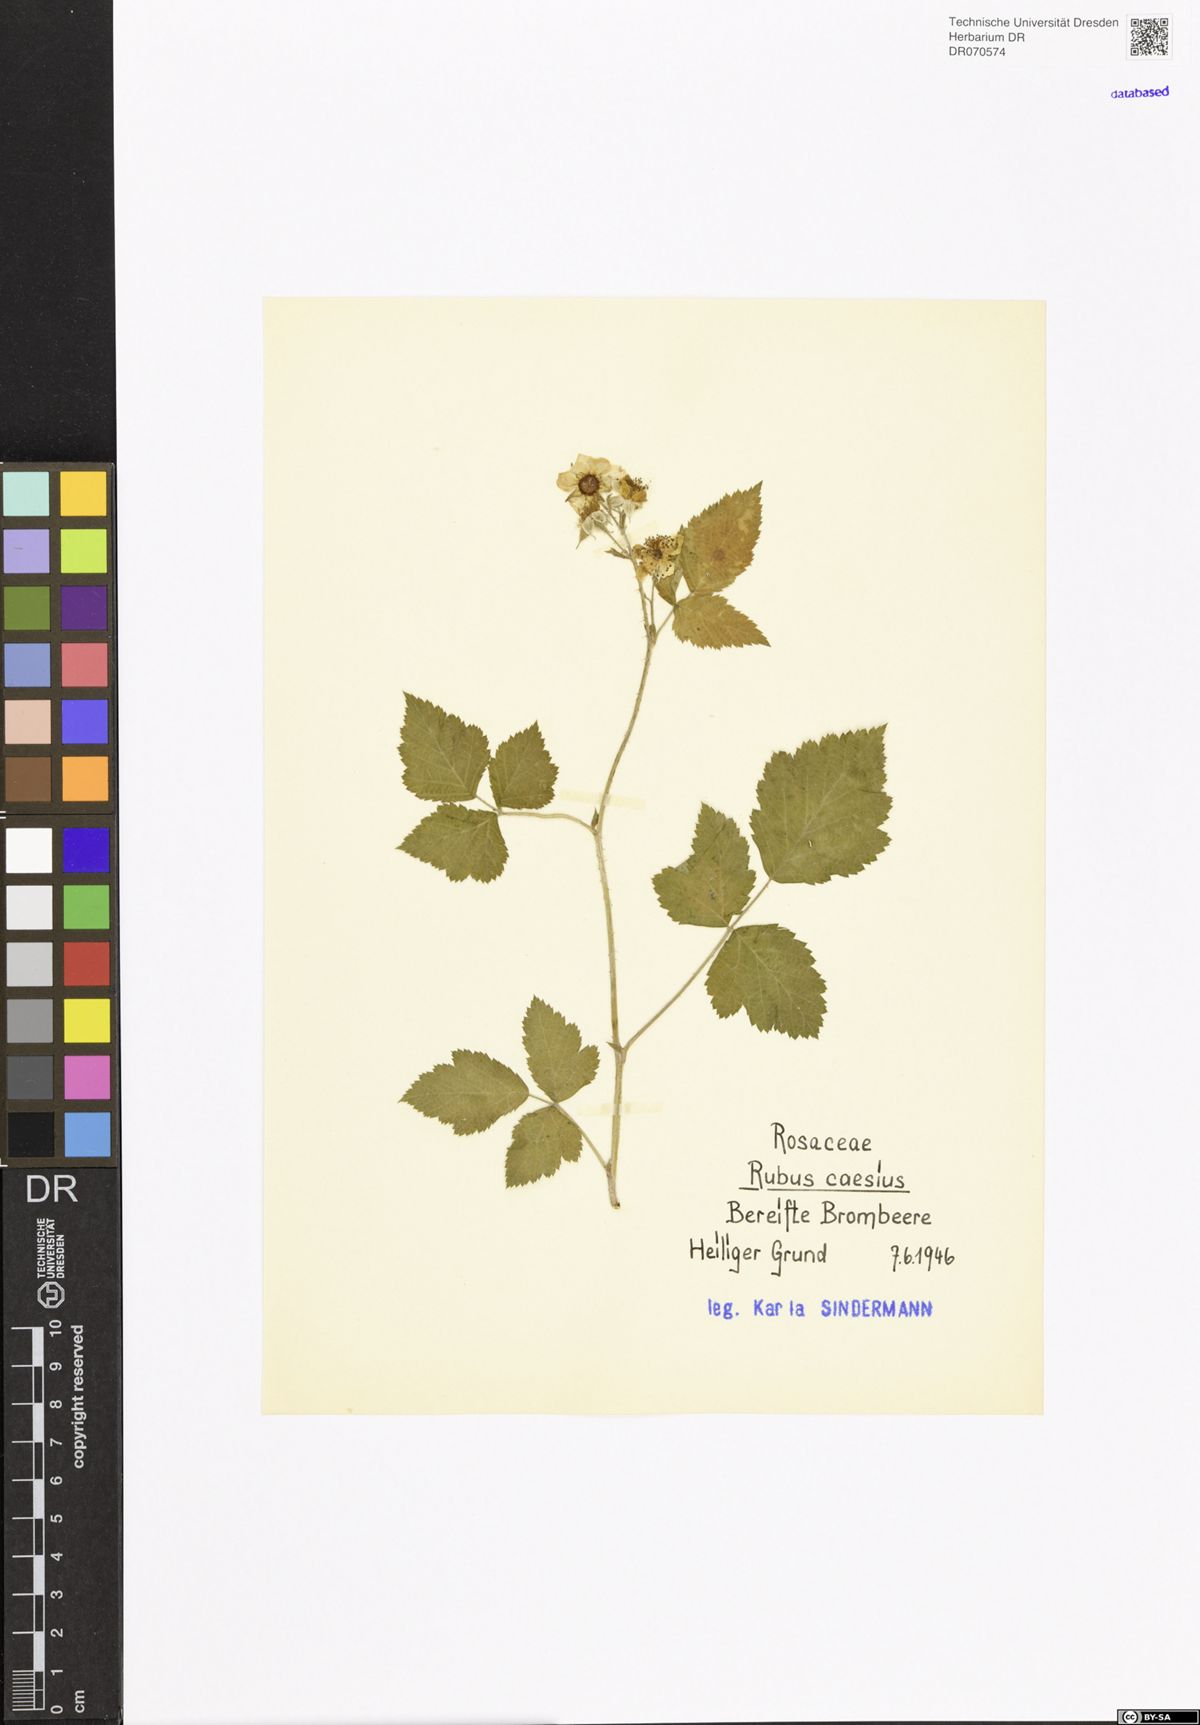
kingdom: Plantae
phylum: Tracheophyta
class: Magnoliopsida
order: Rosales
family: Rosaceae
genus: Rubus
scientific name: Rubus caesius
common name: Dewberry
